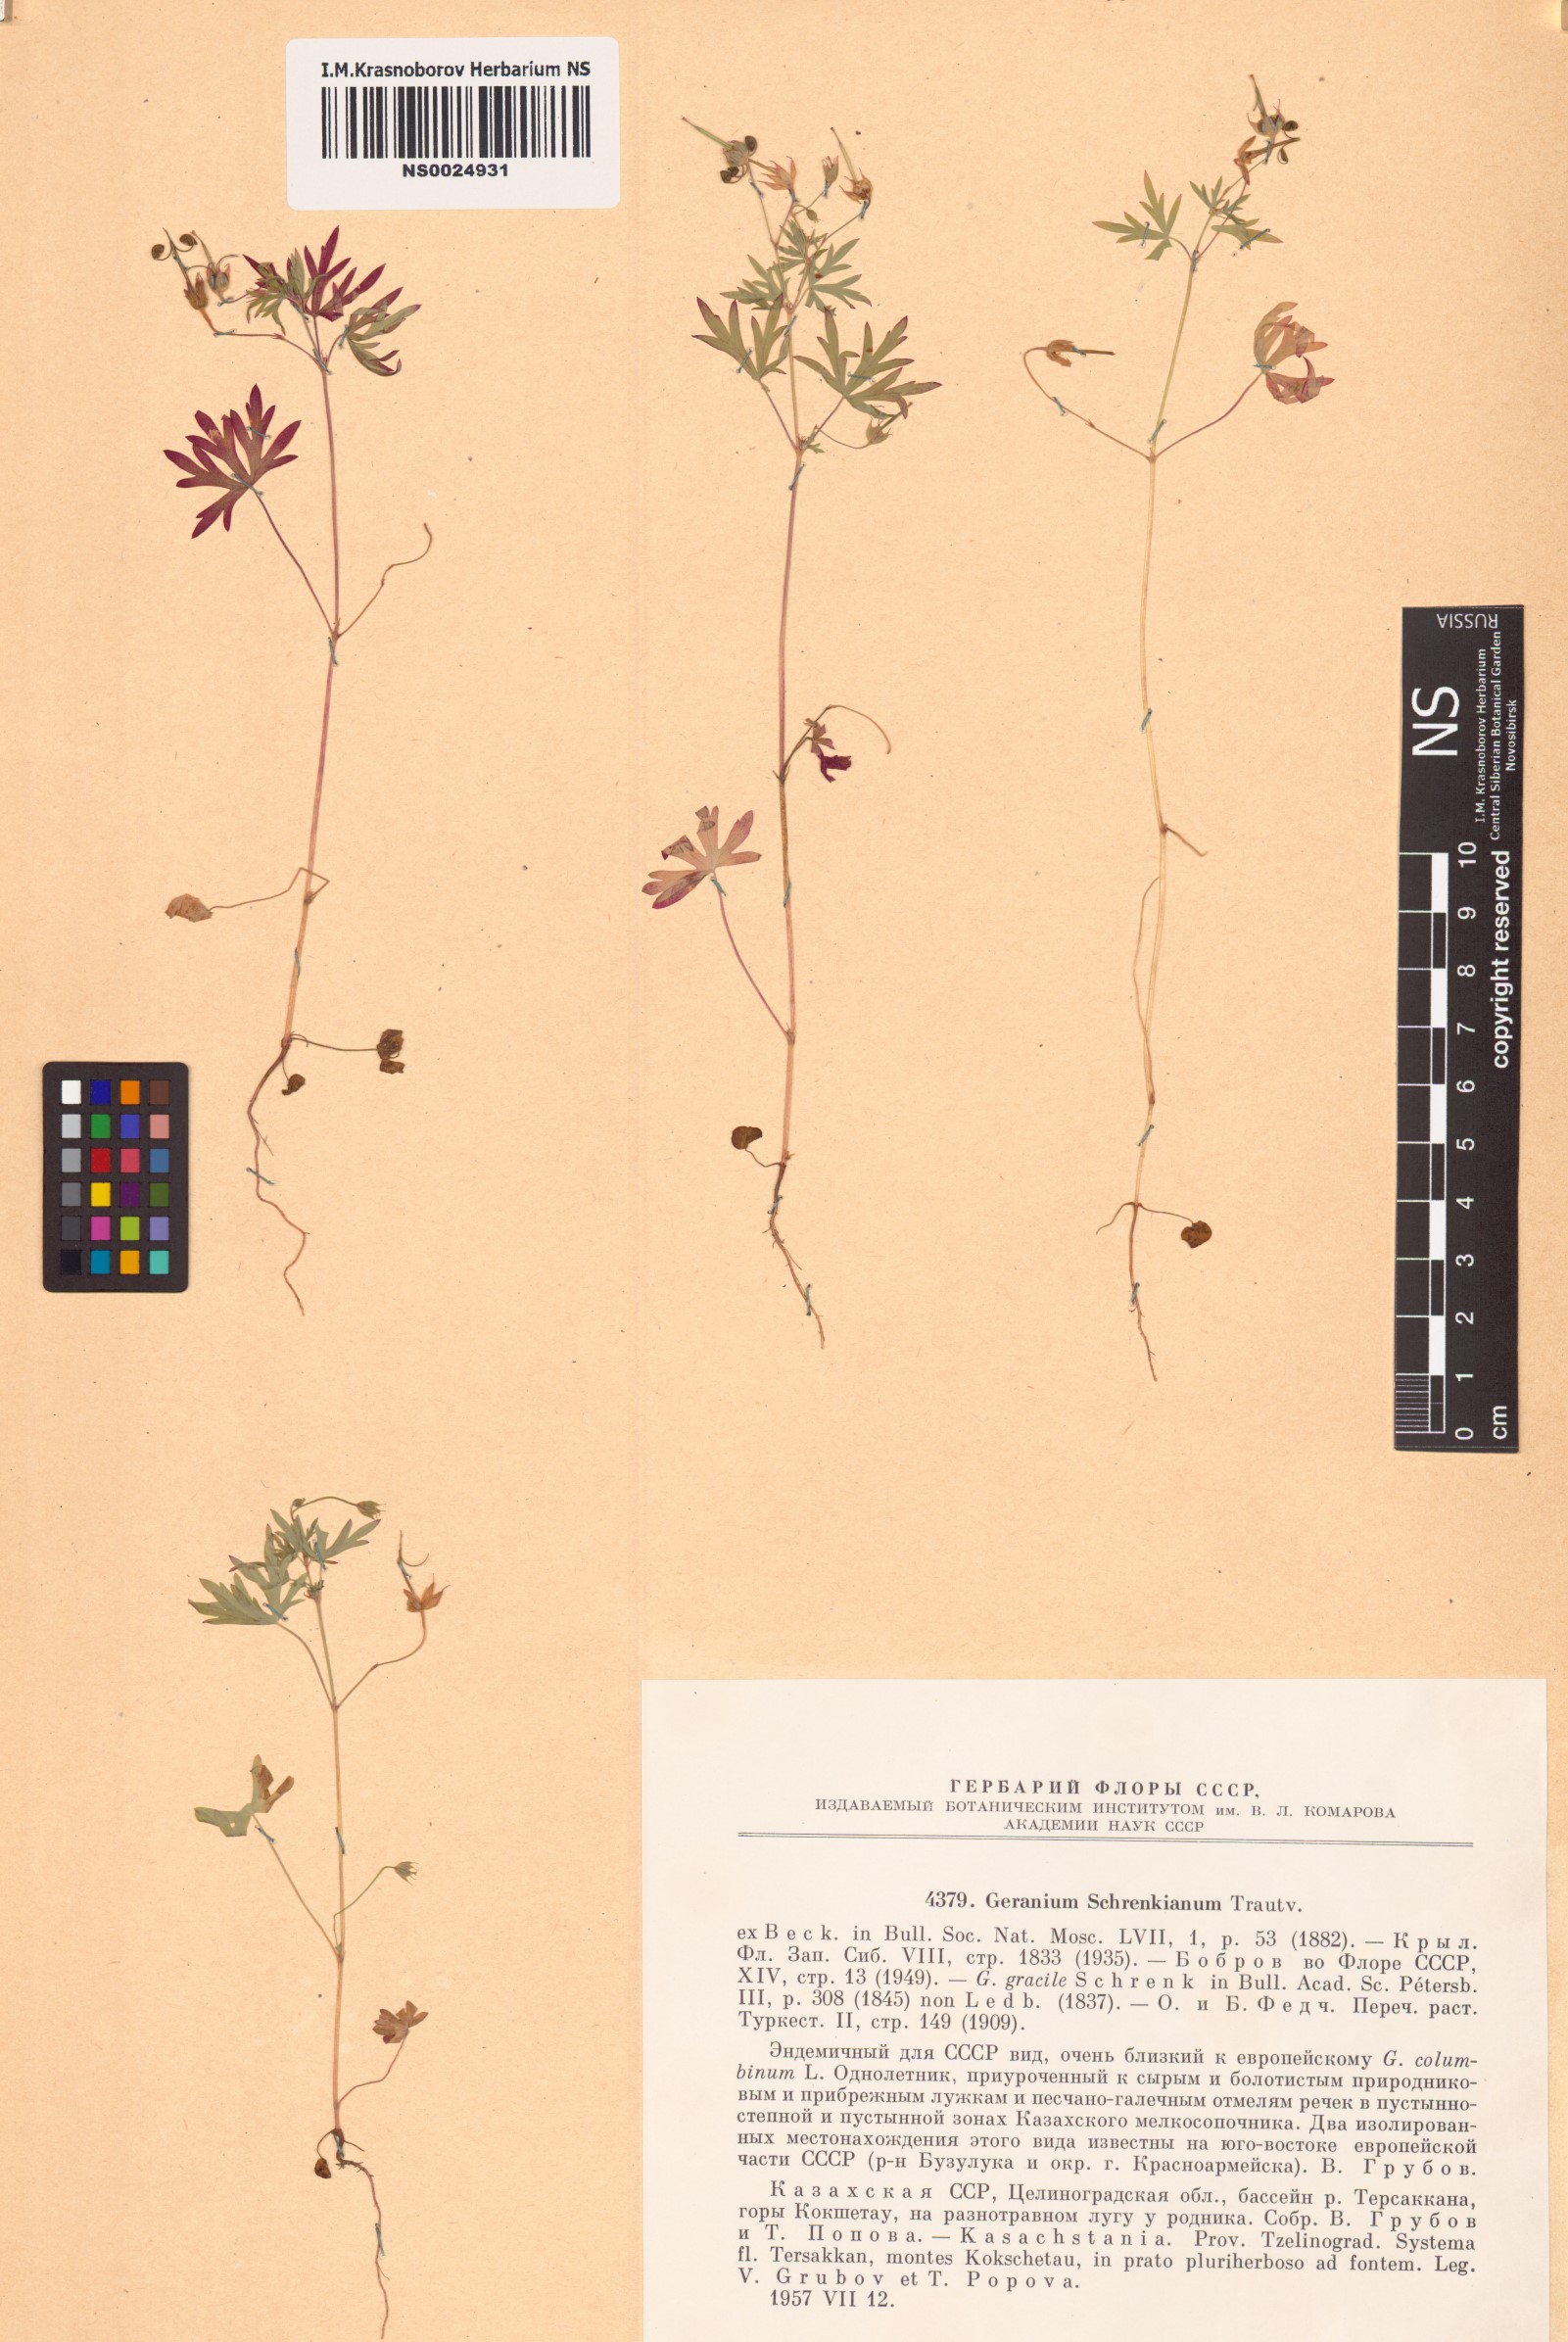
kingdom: Plantae
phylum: Tracheophyta
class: Magnoliopsida
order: Geraniales
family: Geraniaceae
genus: Geranium
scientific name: Geranium schrenkianum
